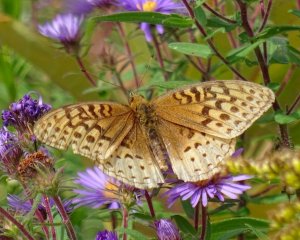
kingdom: Animalia
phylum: Arthropoda
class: Insecta
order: Lepidoptera
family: Nymphalidae
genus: Speyeria
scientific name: Speyeria cybele
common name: Great Spangled Fritillary
